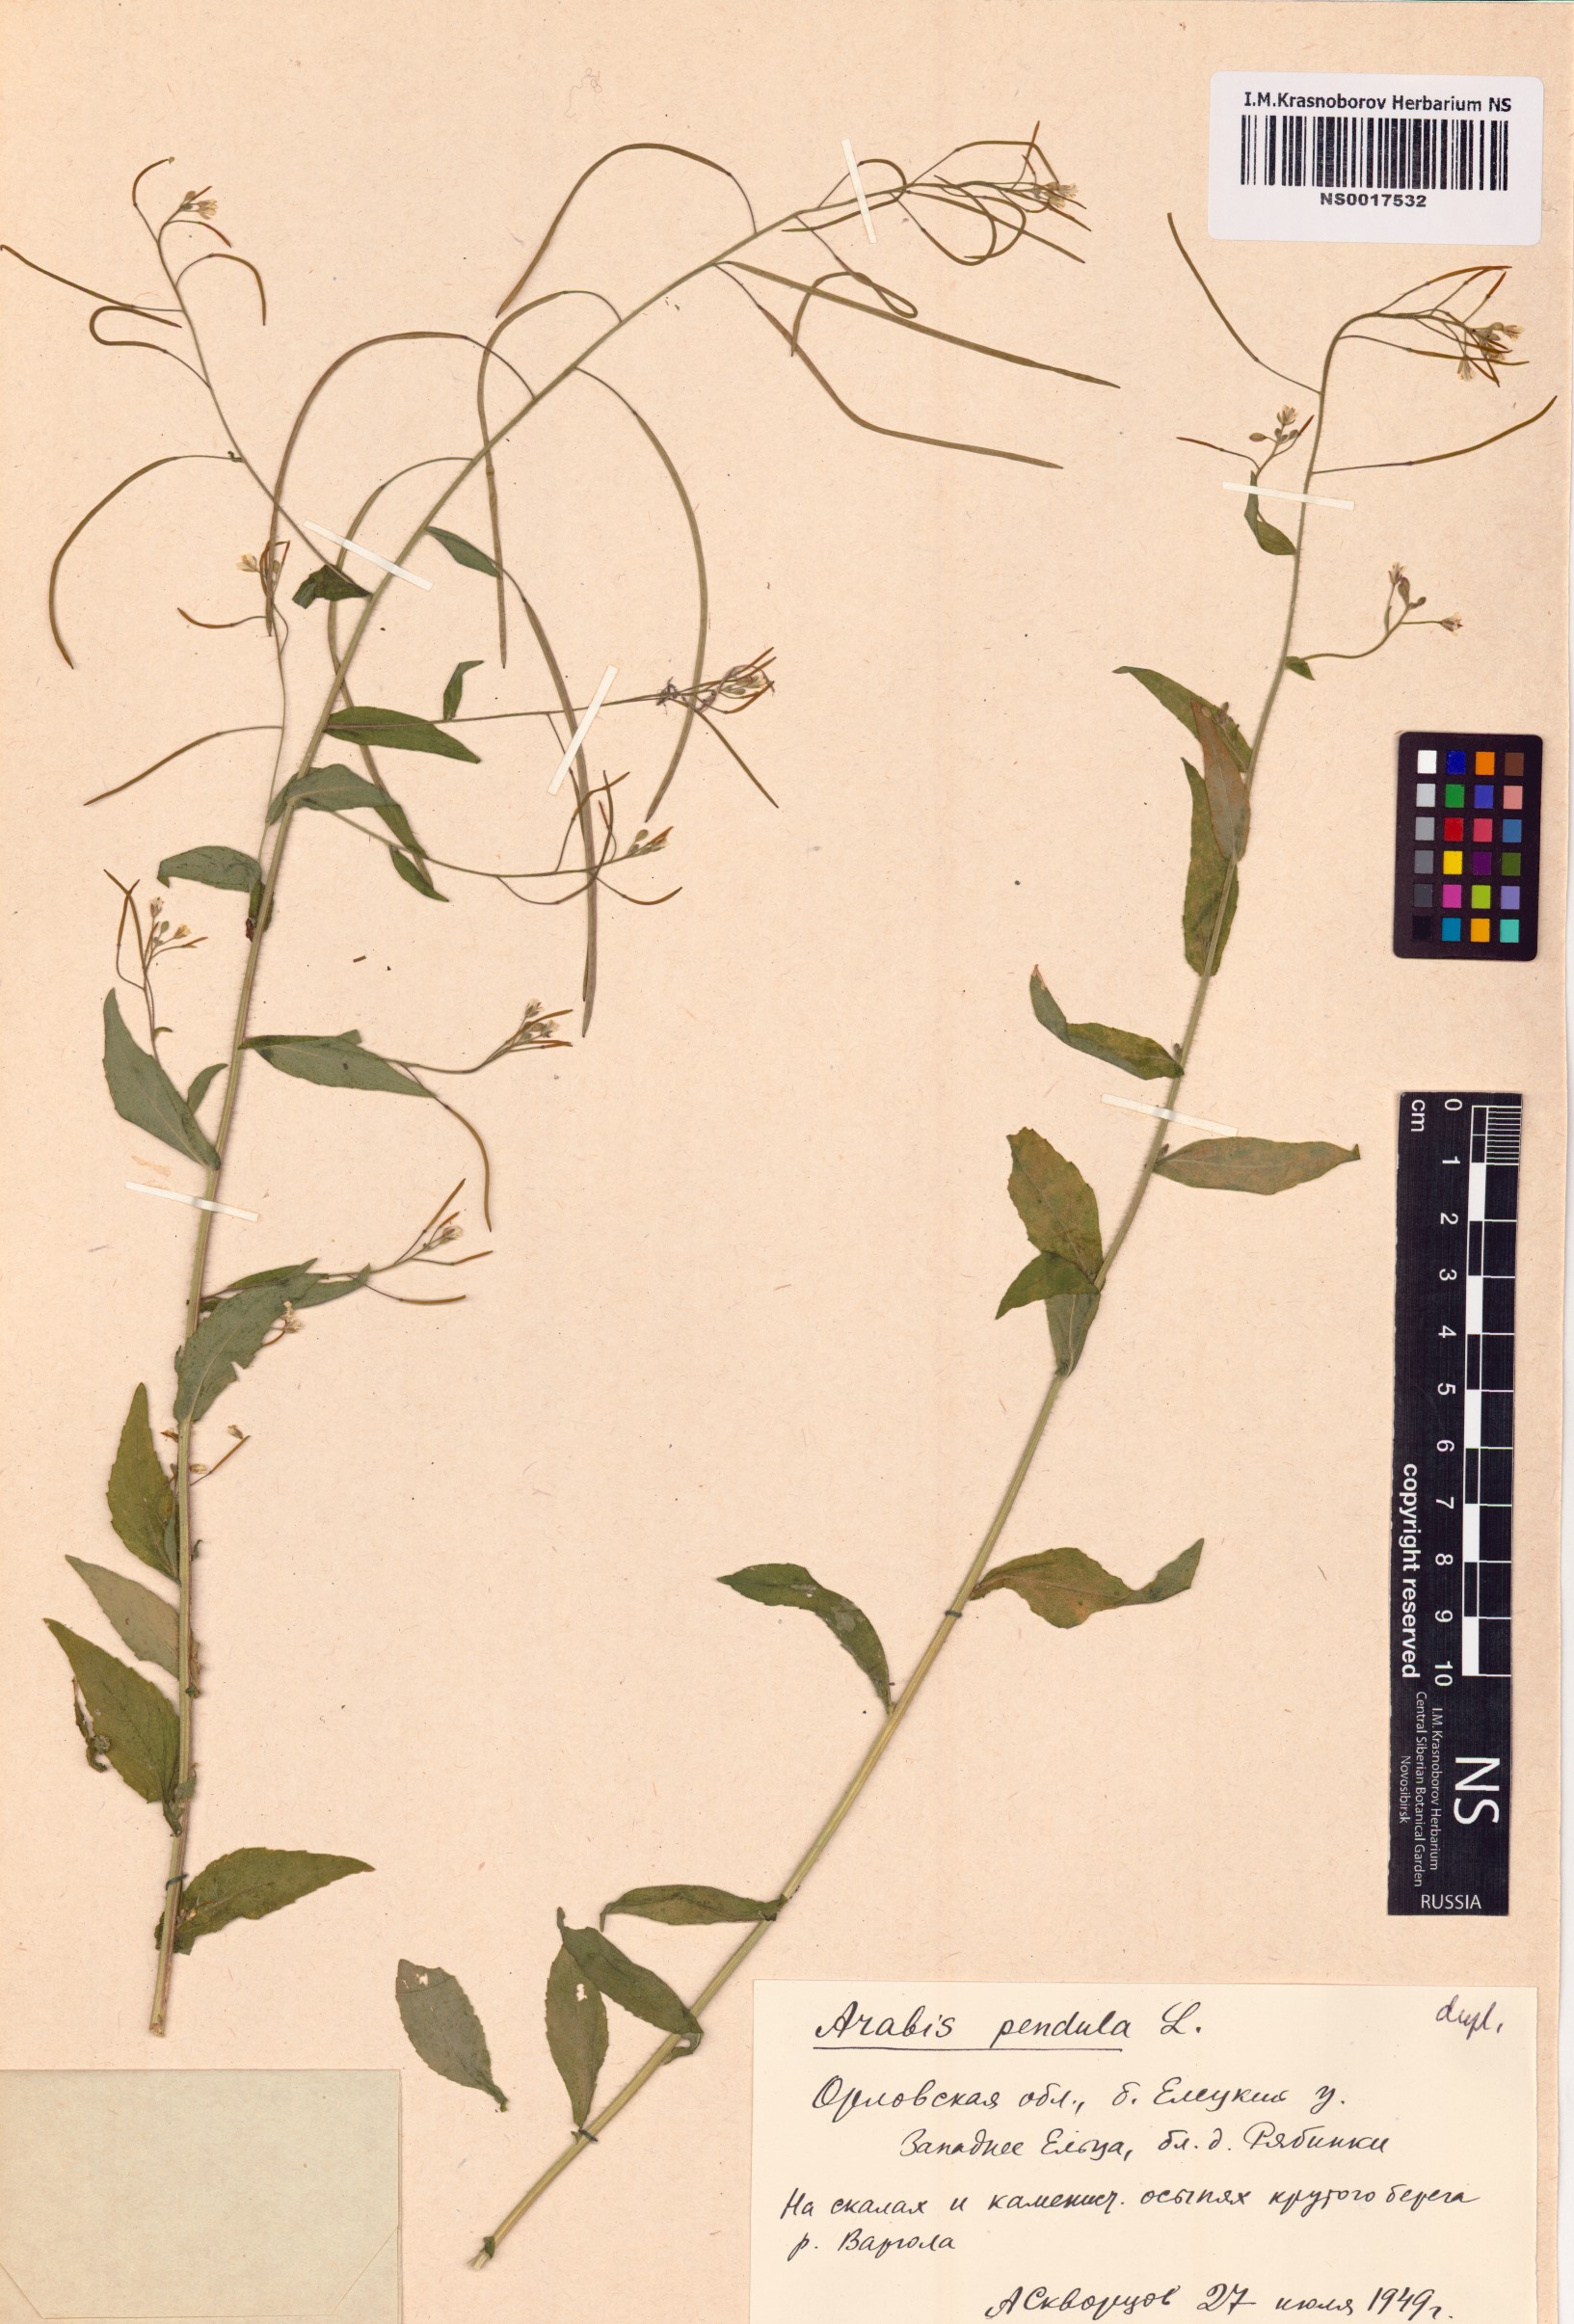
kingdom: Plantae
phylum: Tracheophyta
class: Magnoliopsida
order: Brassicales
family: Brassicaceae
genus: Catolobus
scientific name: Catolobus pendulus
